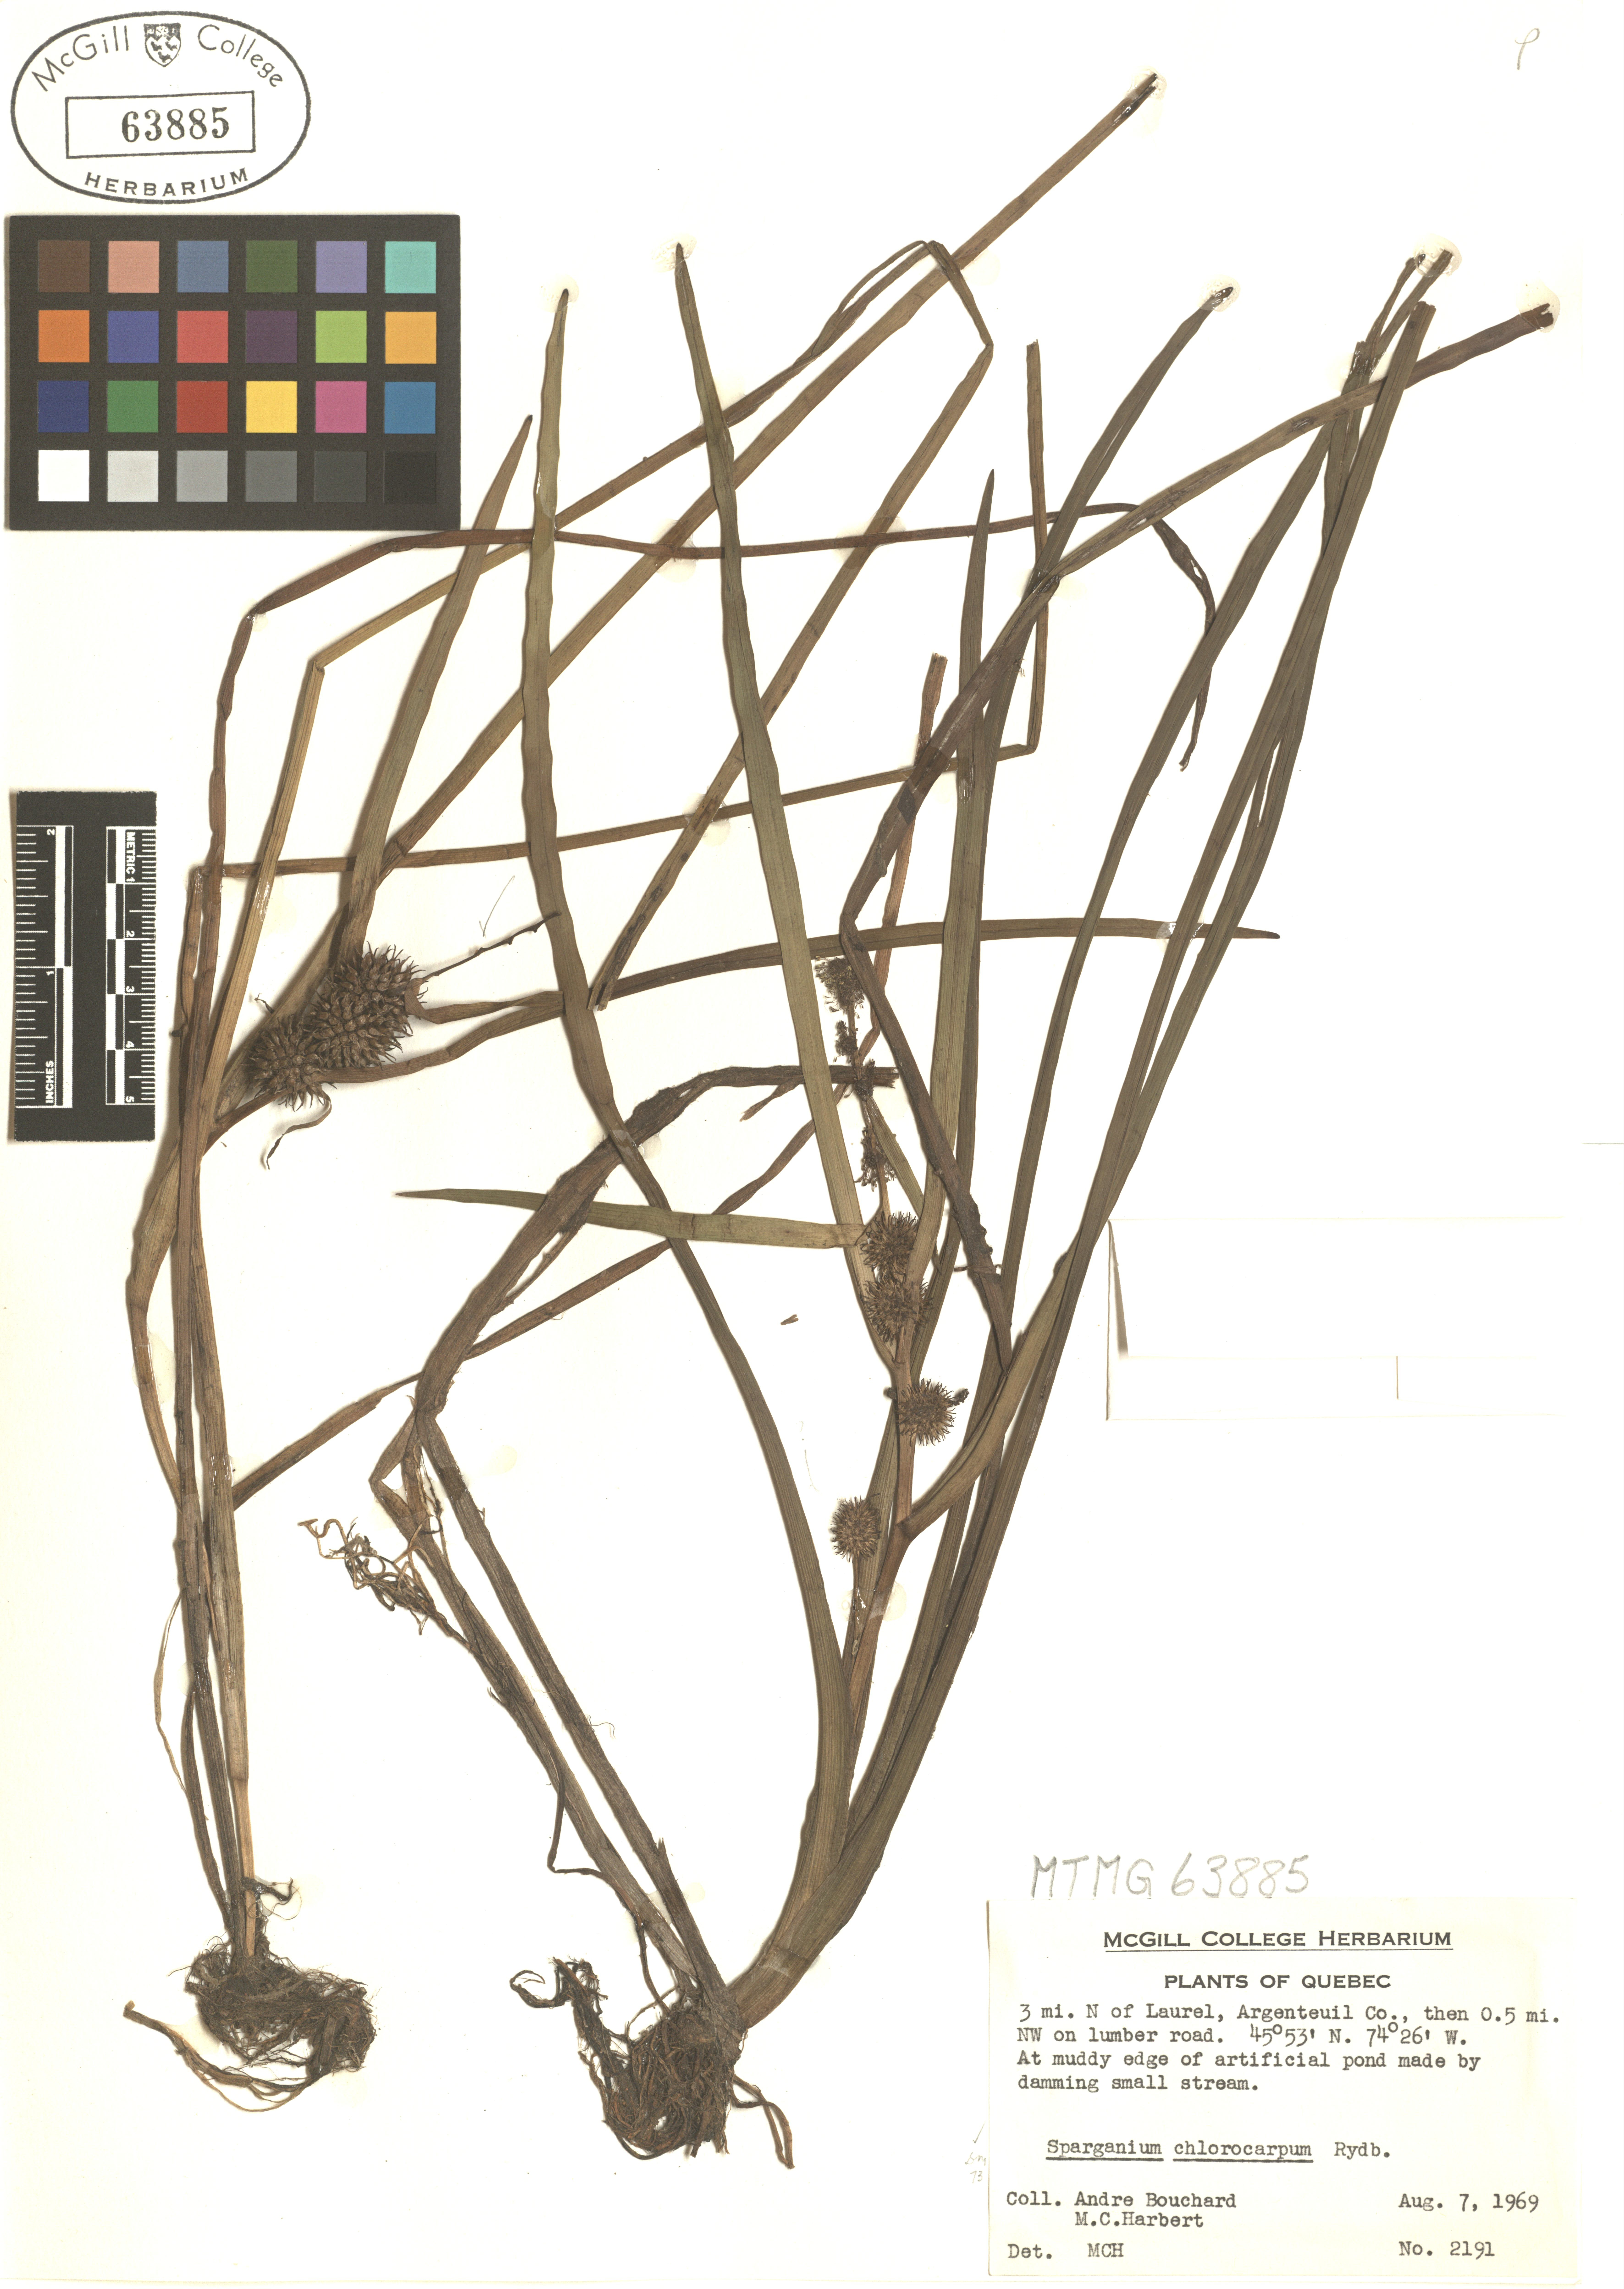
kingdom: Plantae
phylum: Tracheophyta
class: Liliopsida
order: Poales
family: Typhaceae
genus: Sparganium
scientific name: Sparganium emersum
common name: Unbranched bur-reed
